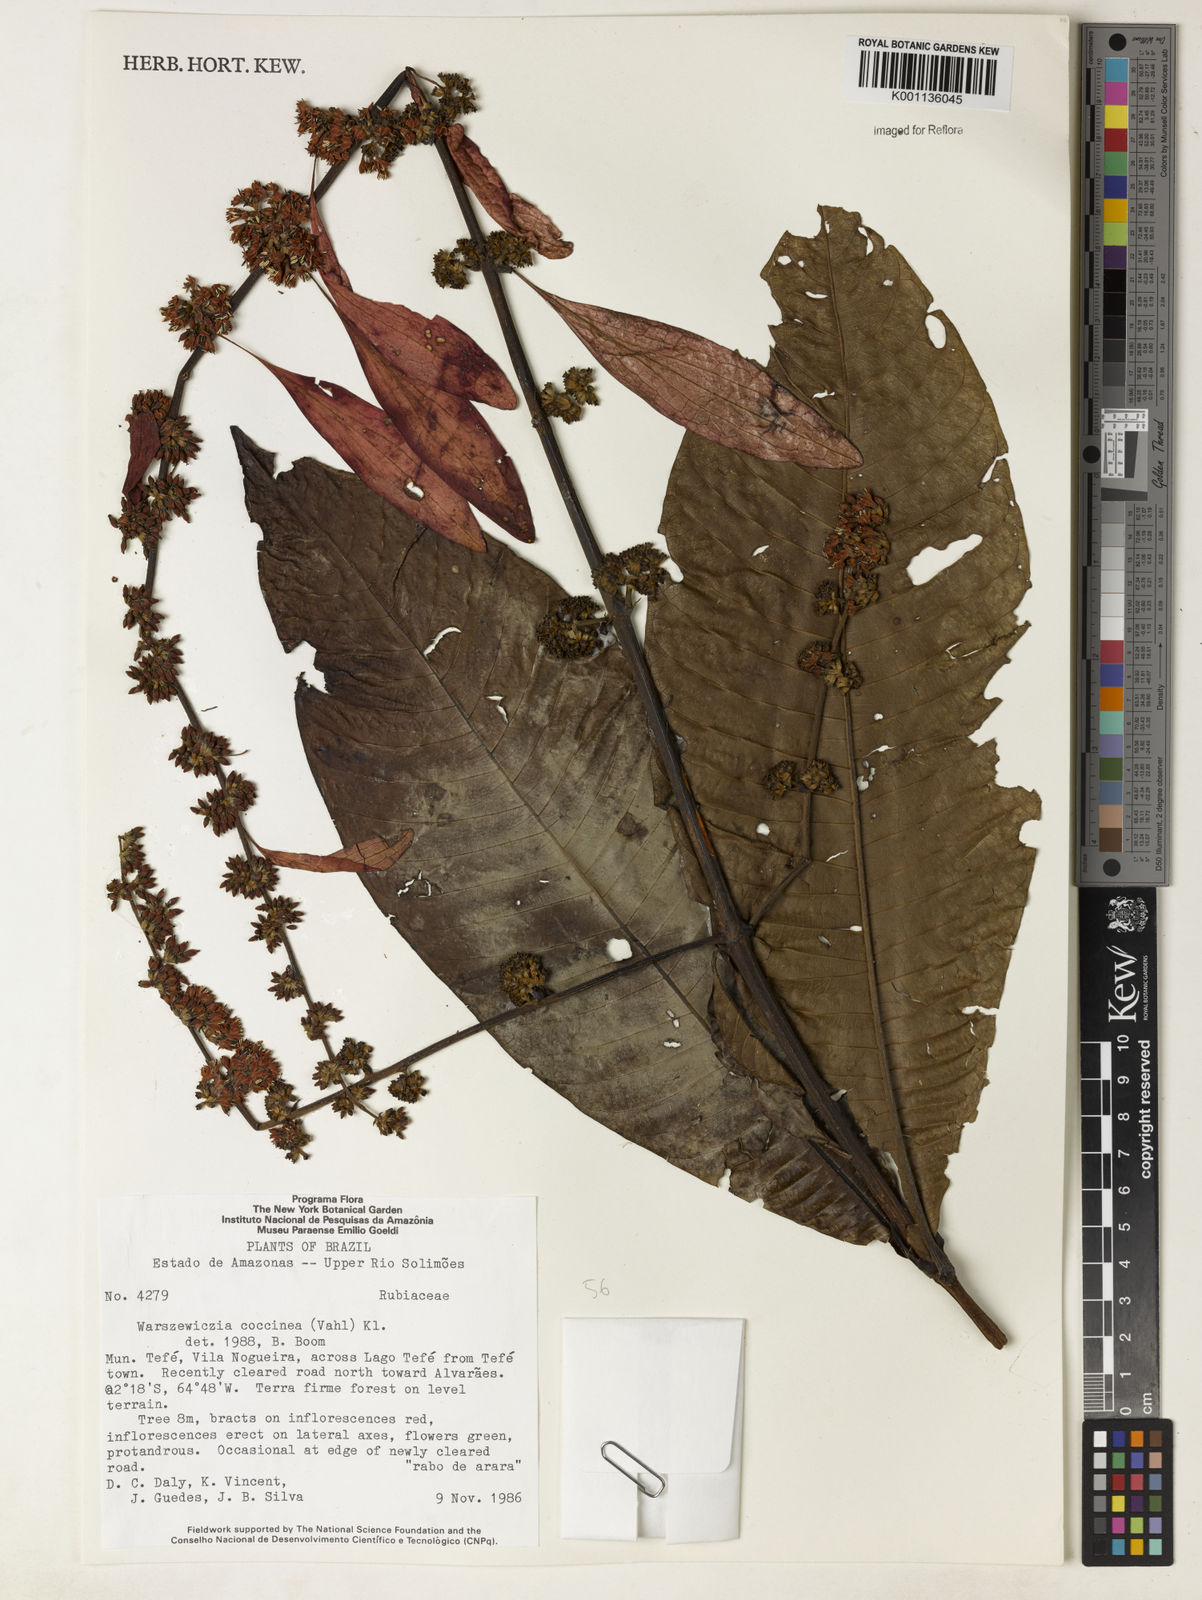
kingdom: Plantae
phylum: Tracheophyta
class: Magnoliopsida
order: Gentianales
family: Rubiaceae
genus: Warszewiczia
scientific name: Warszewiczia coccinea
